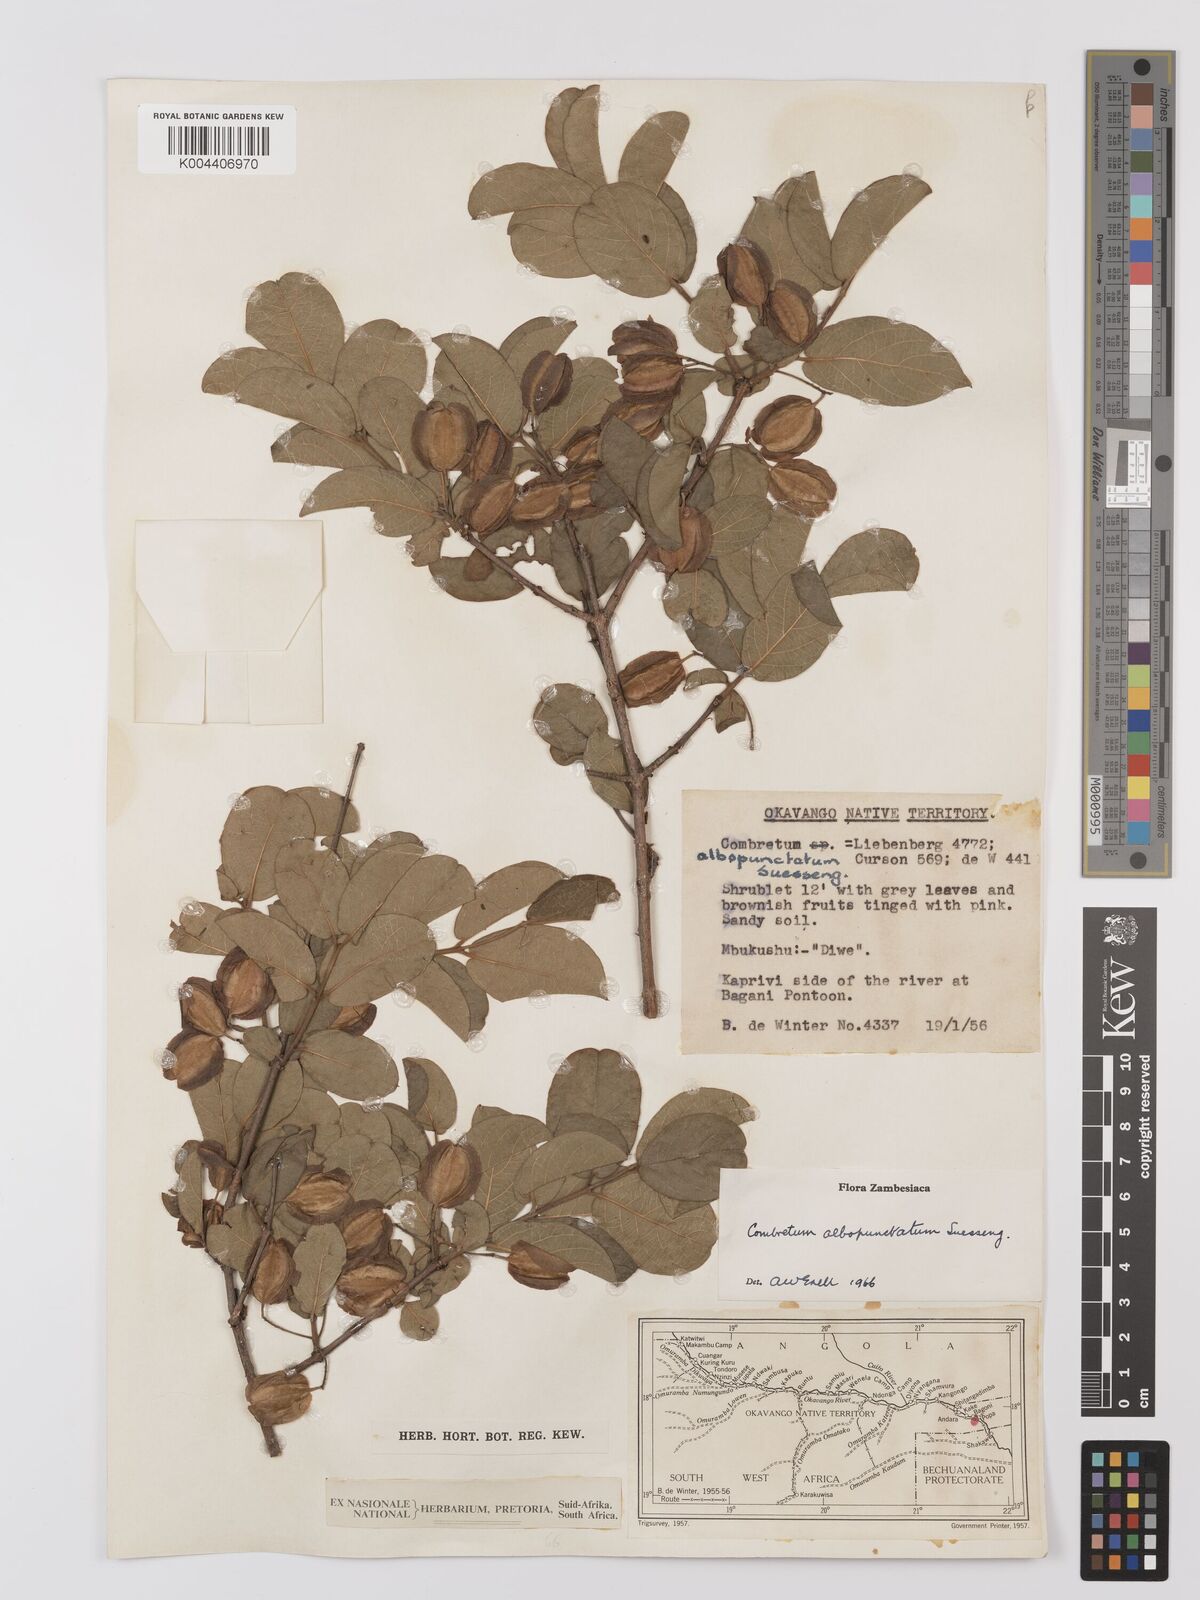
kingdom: Plantae
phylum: Tracheophyta
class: Magnoliopsida
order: Myrtales
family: Combretaceae
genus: Combretum
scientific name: Combretum albopunctatum
